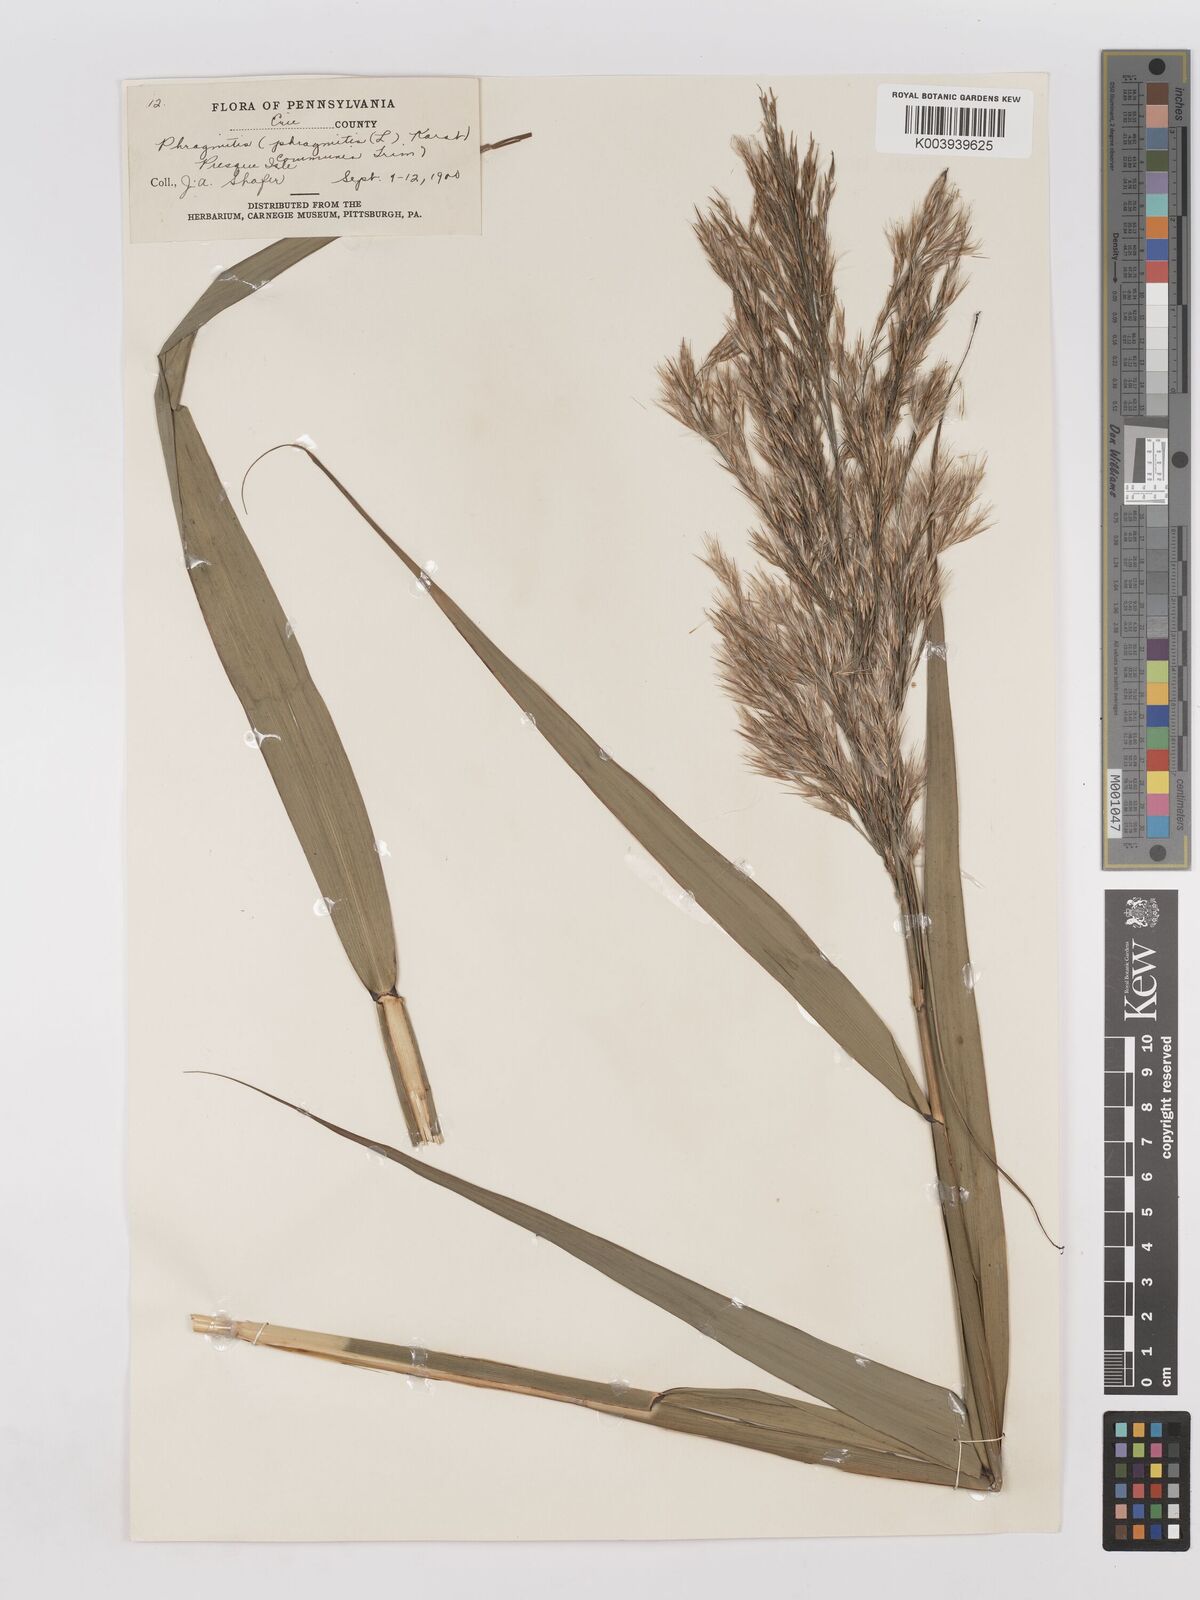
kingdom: Plantae
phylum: Tracheophyta
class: Liliopsida
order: Poales
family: Poaceae
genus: Phragmites
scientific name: Phragmites australis
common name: Common reed
